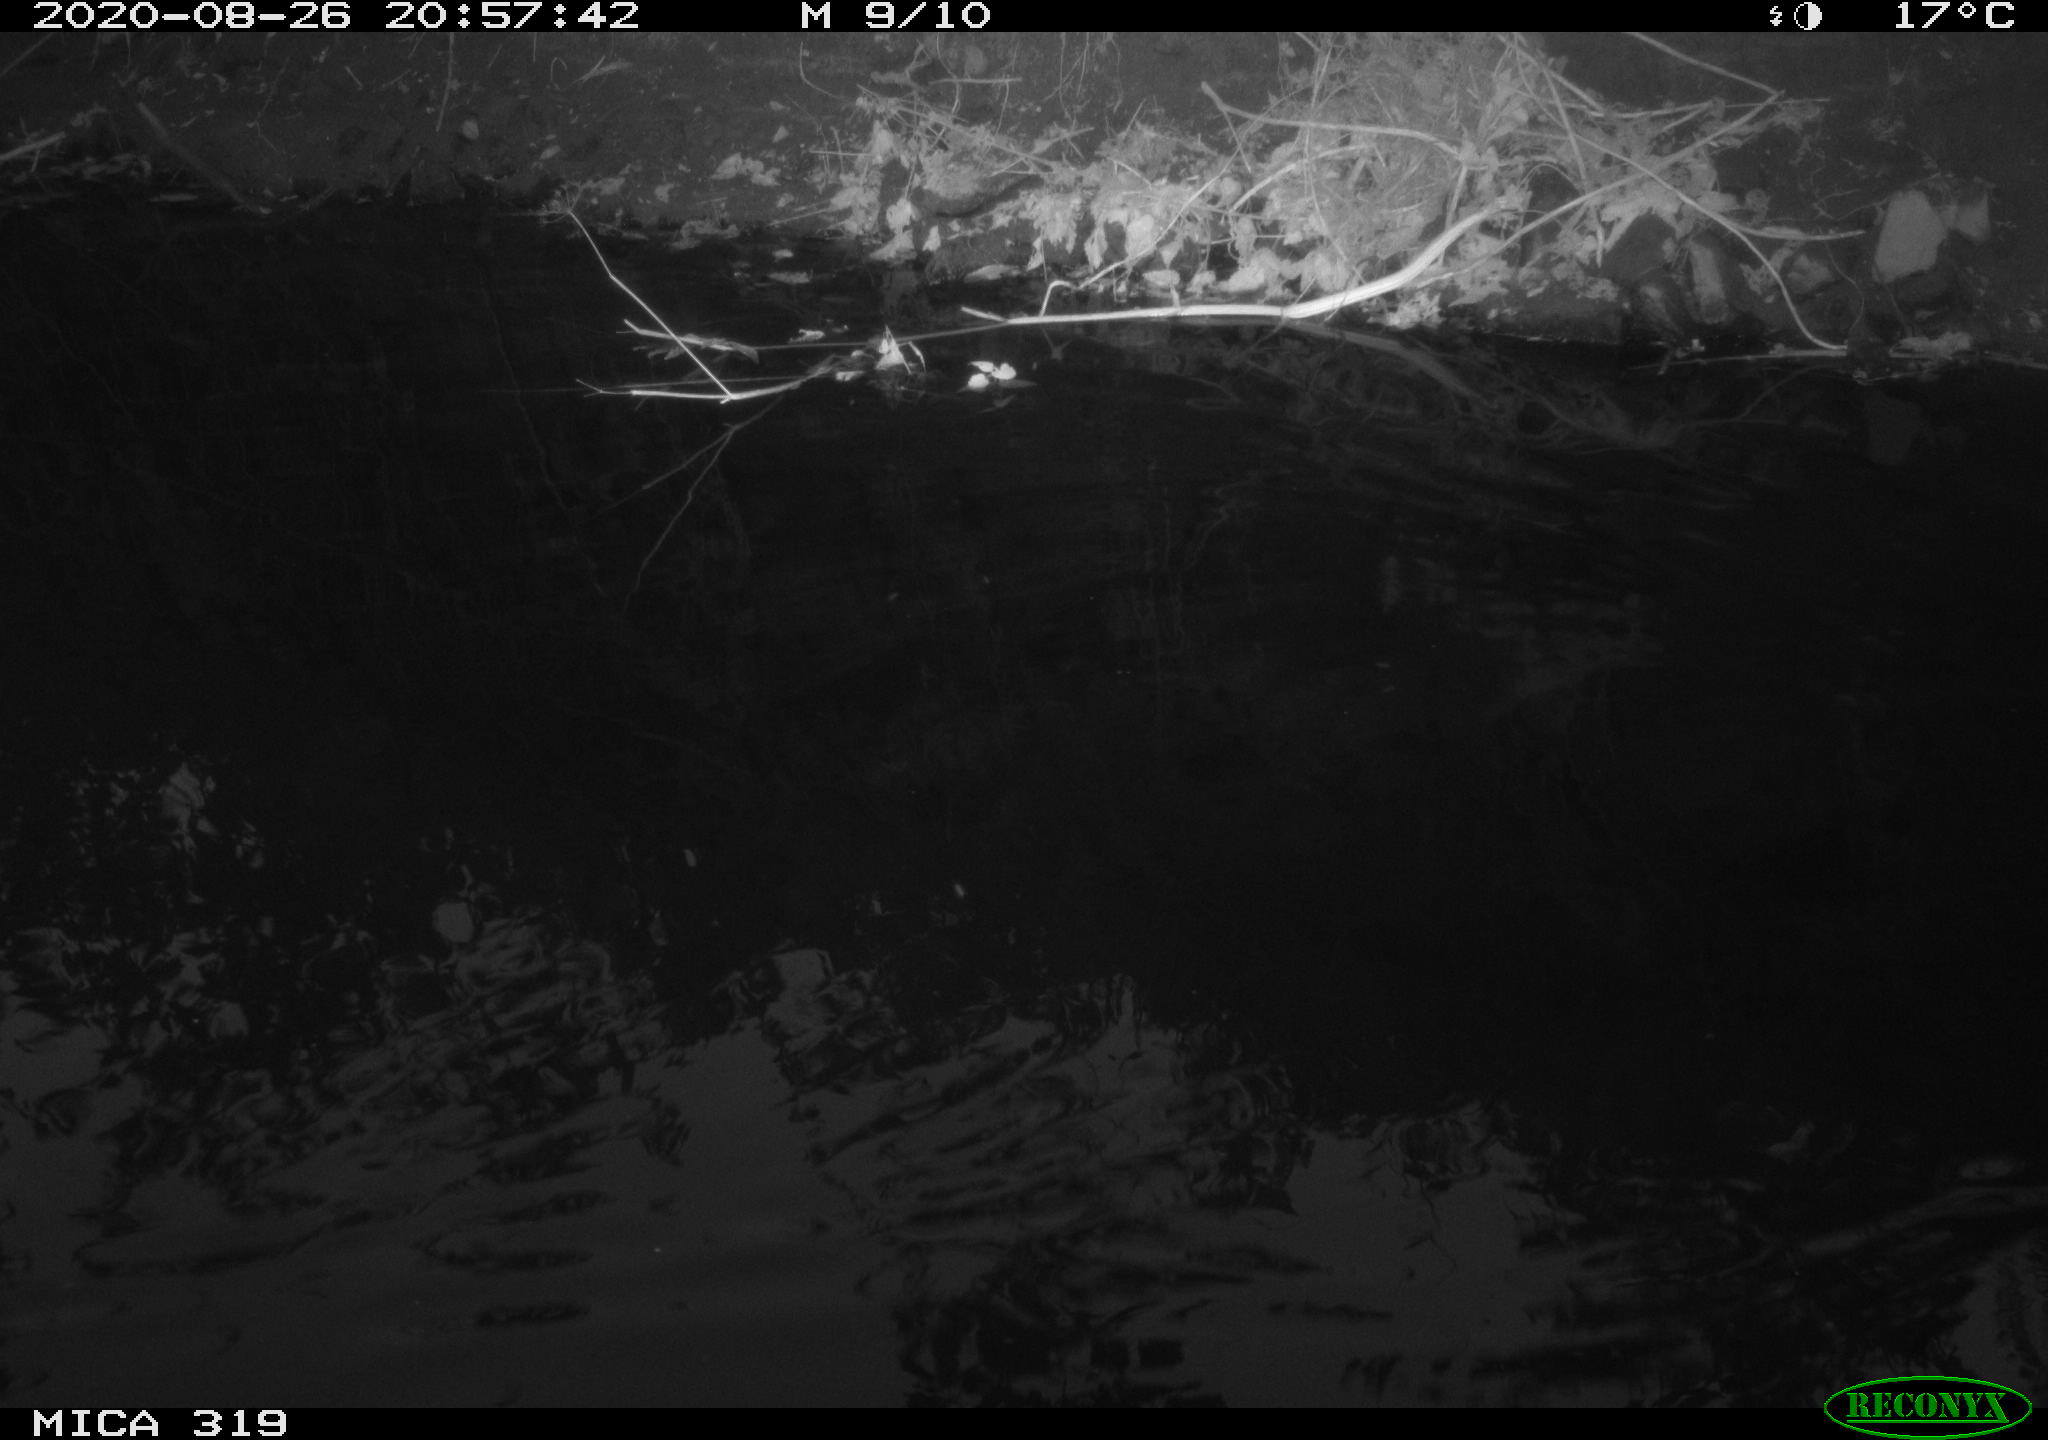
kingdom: Animalia
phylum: Chordata
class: Aves
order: Anseriformes
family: Anatidae
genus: Anas
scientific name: Anas platyrhynchos
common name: Mallard
